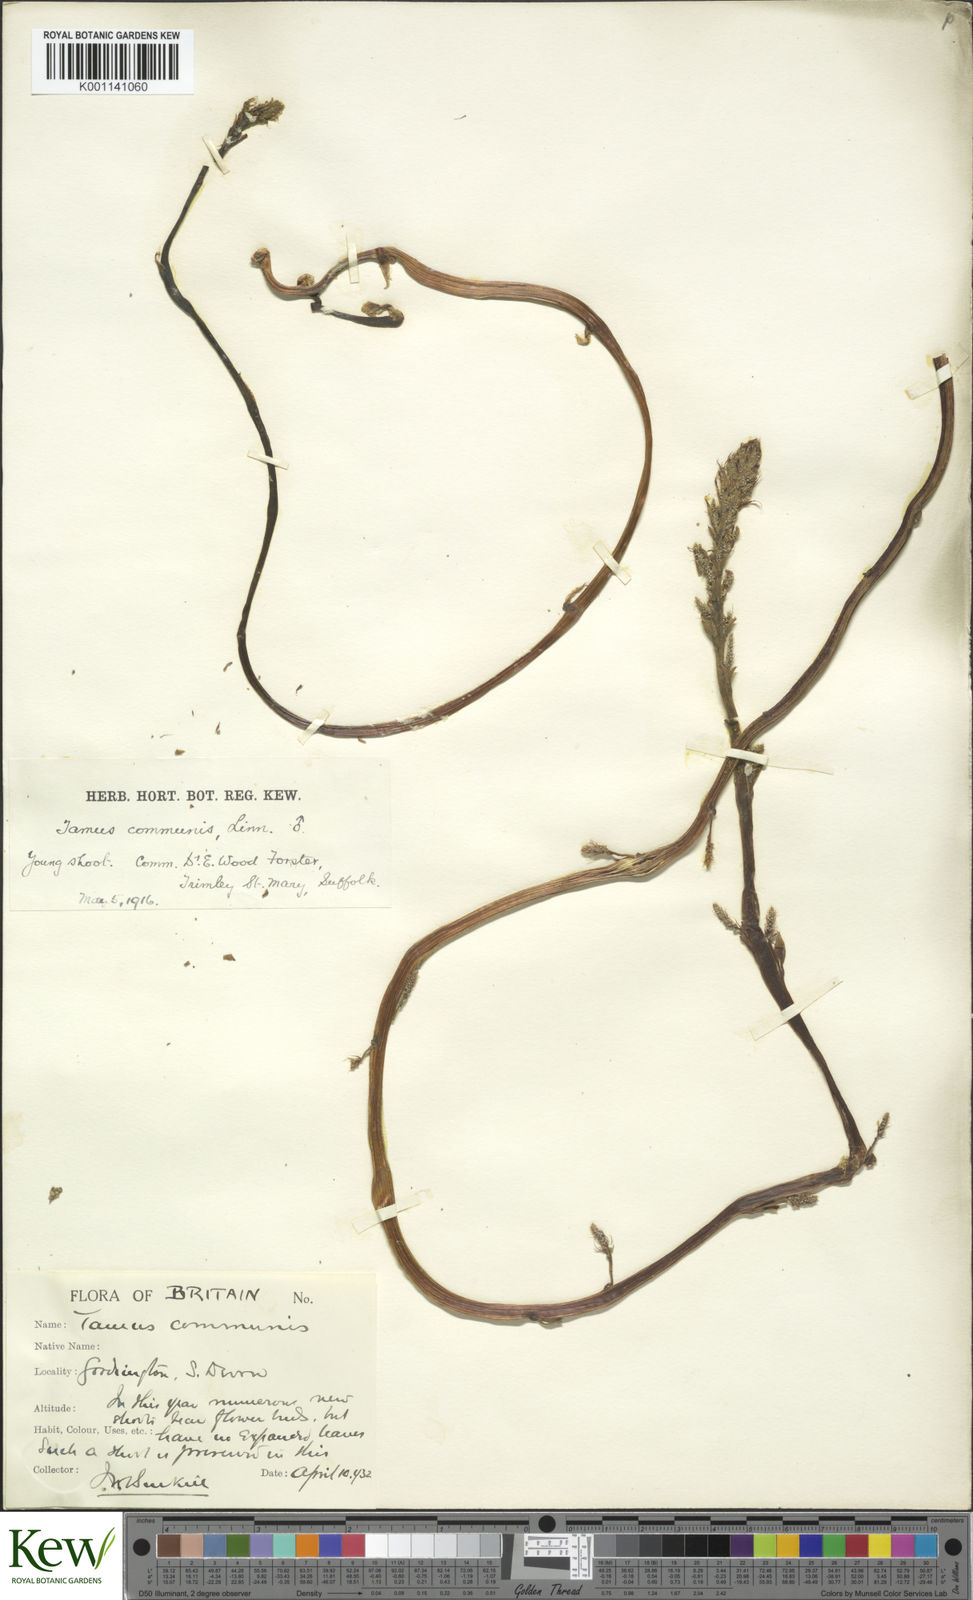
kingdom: Plantae
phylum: Tracheophyta
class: Liliopsida
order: Dioscoreales
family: Dioscoreaceae
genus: Dioscorea
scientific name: Dioscorea communis
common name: Black-bindweed
